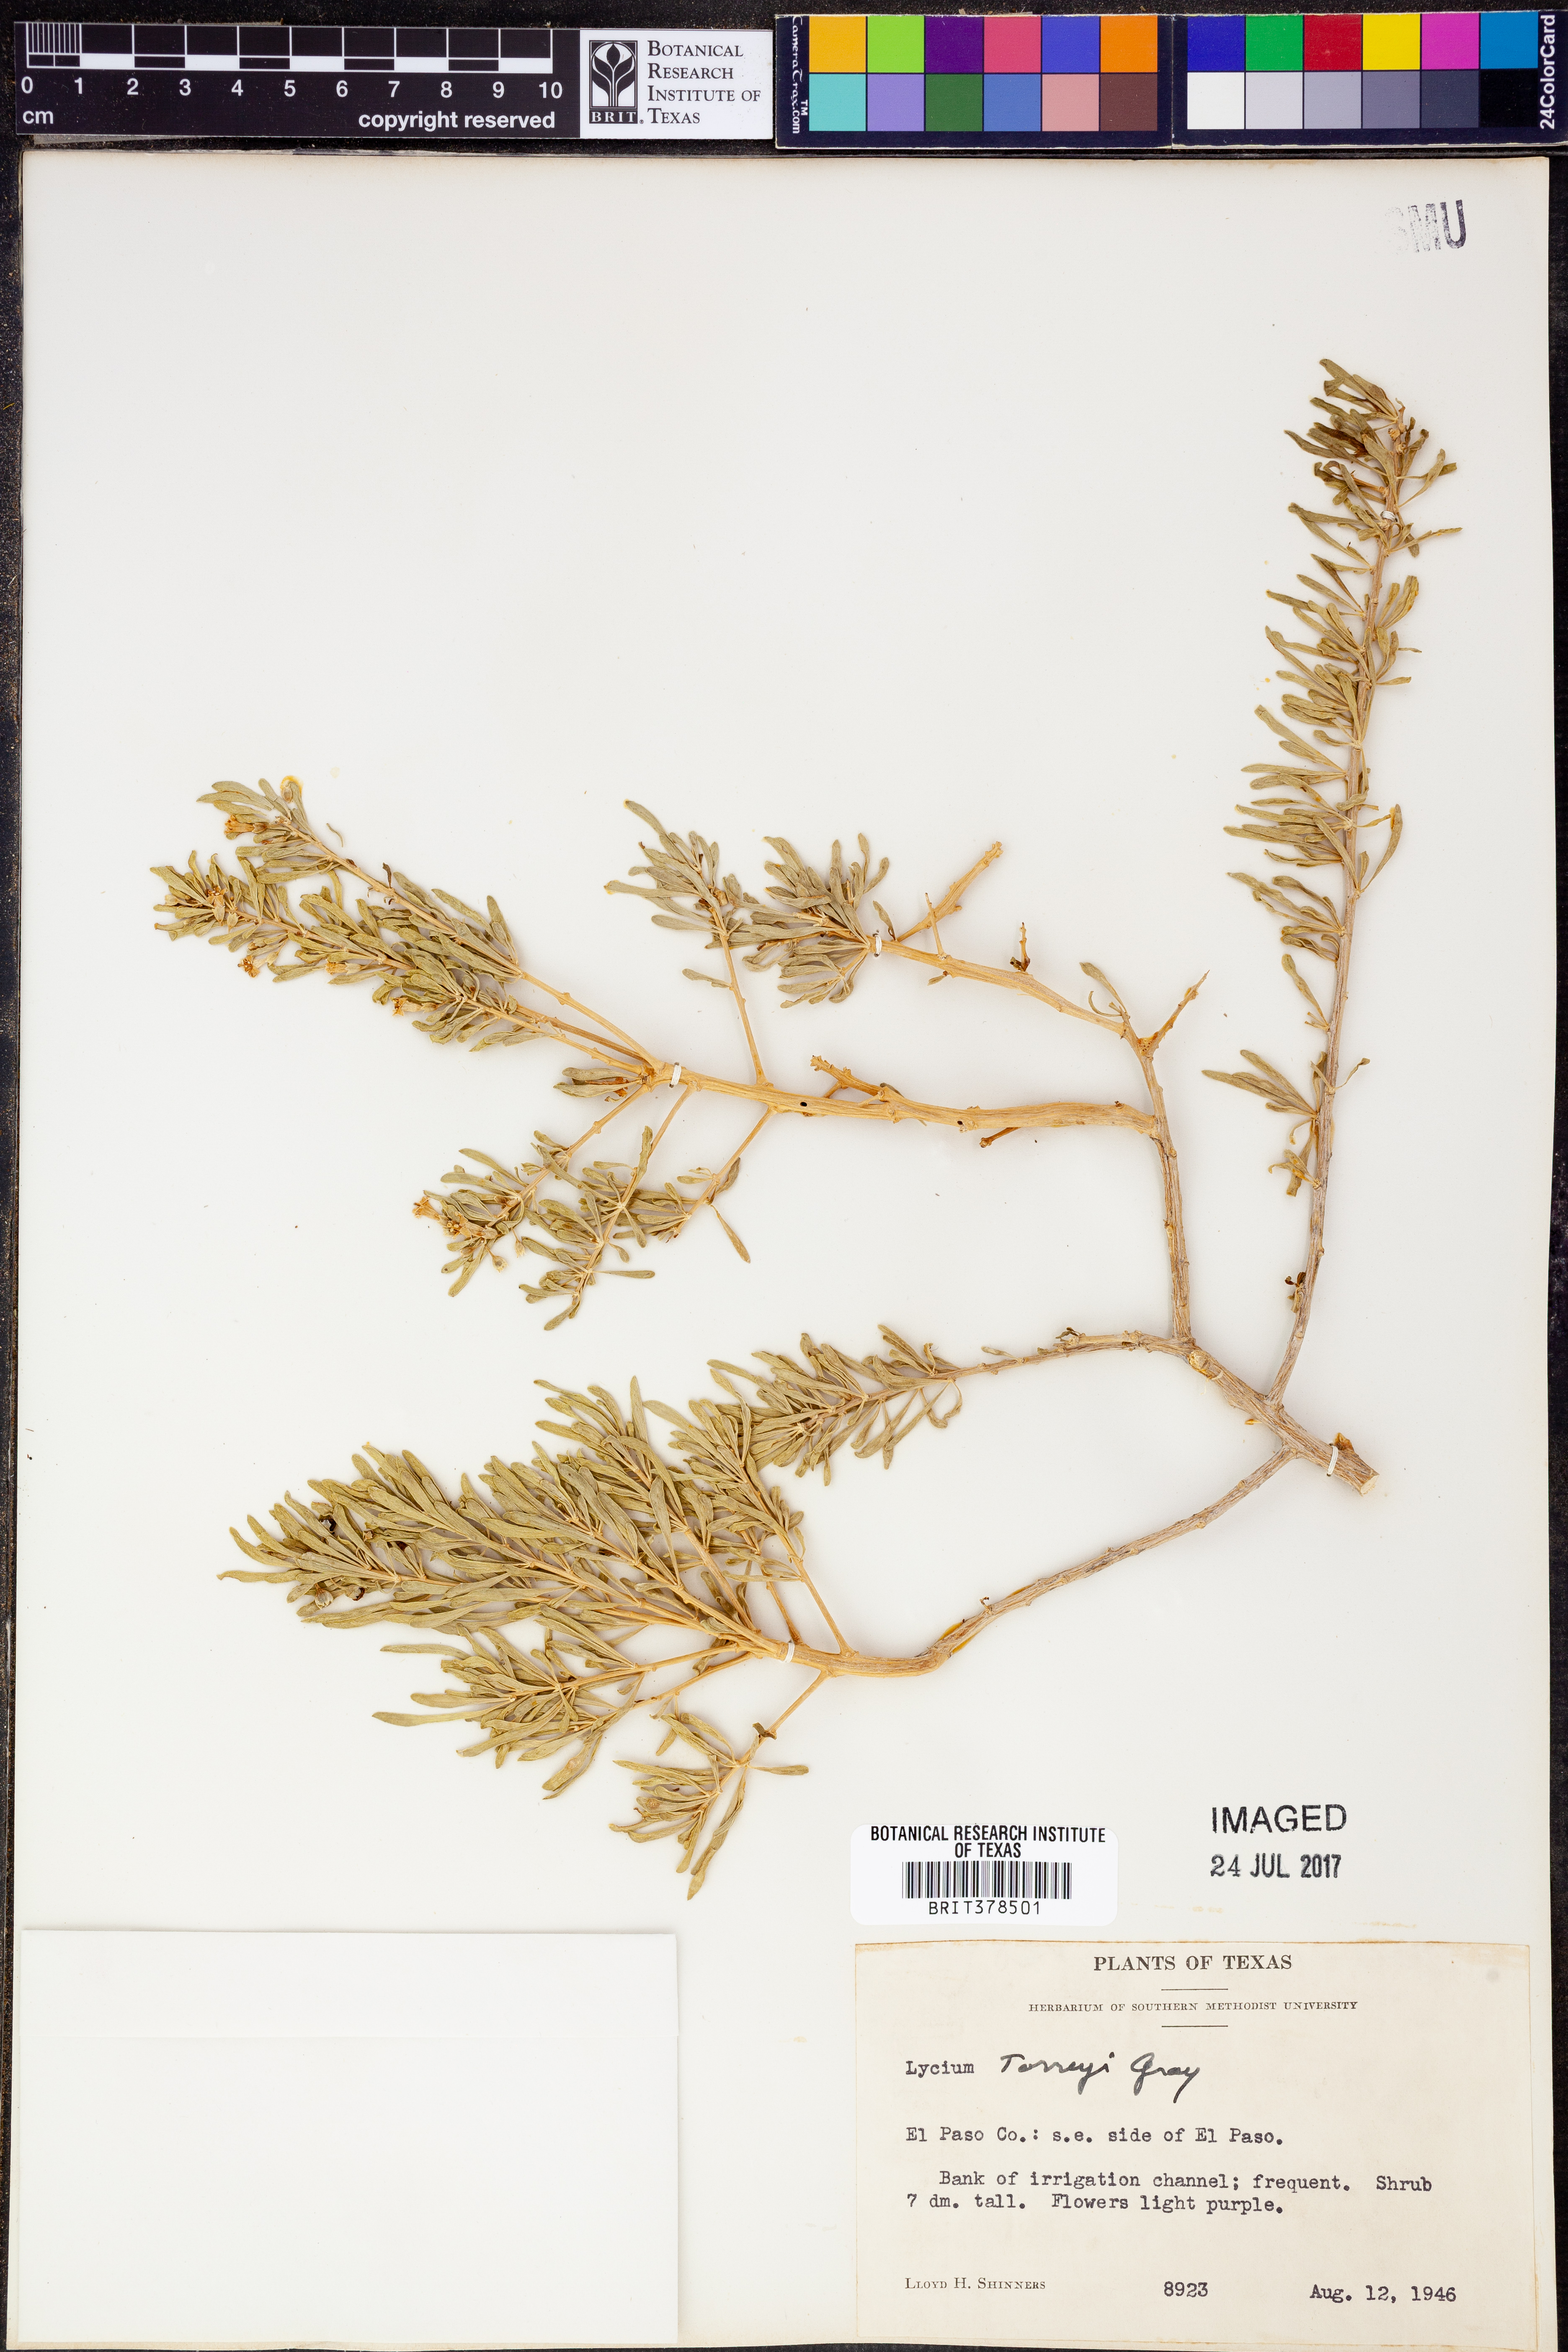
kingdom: Plantae
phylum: Tracheophyta
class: Magnoliopsida
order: Solanales
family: Solanaceae
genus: Lycium
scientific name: Lycium torreyi
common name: Torrey's lycium
